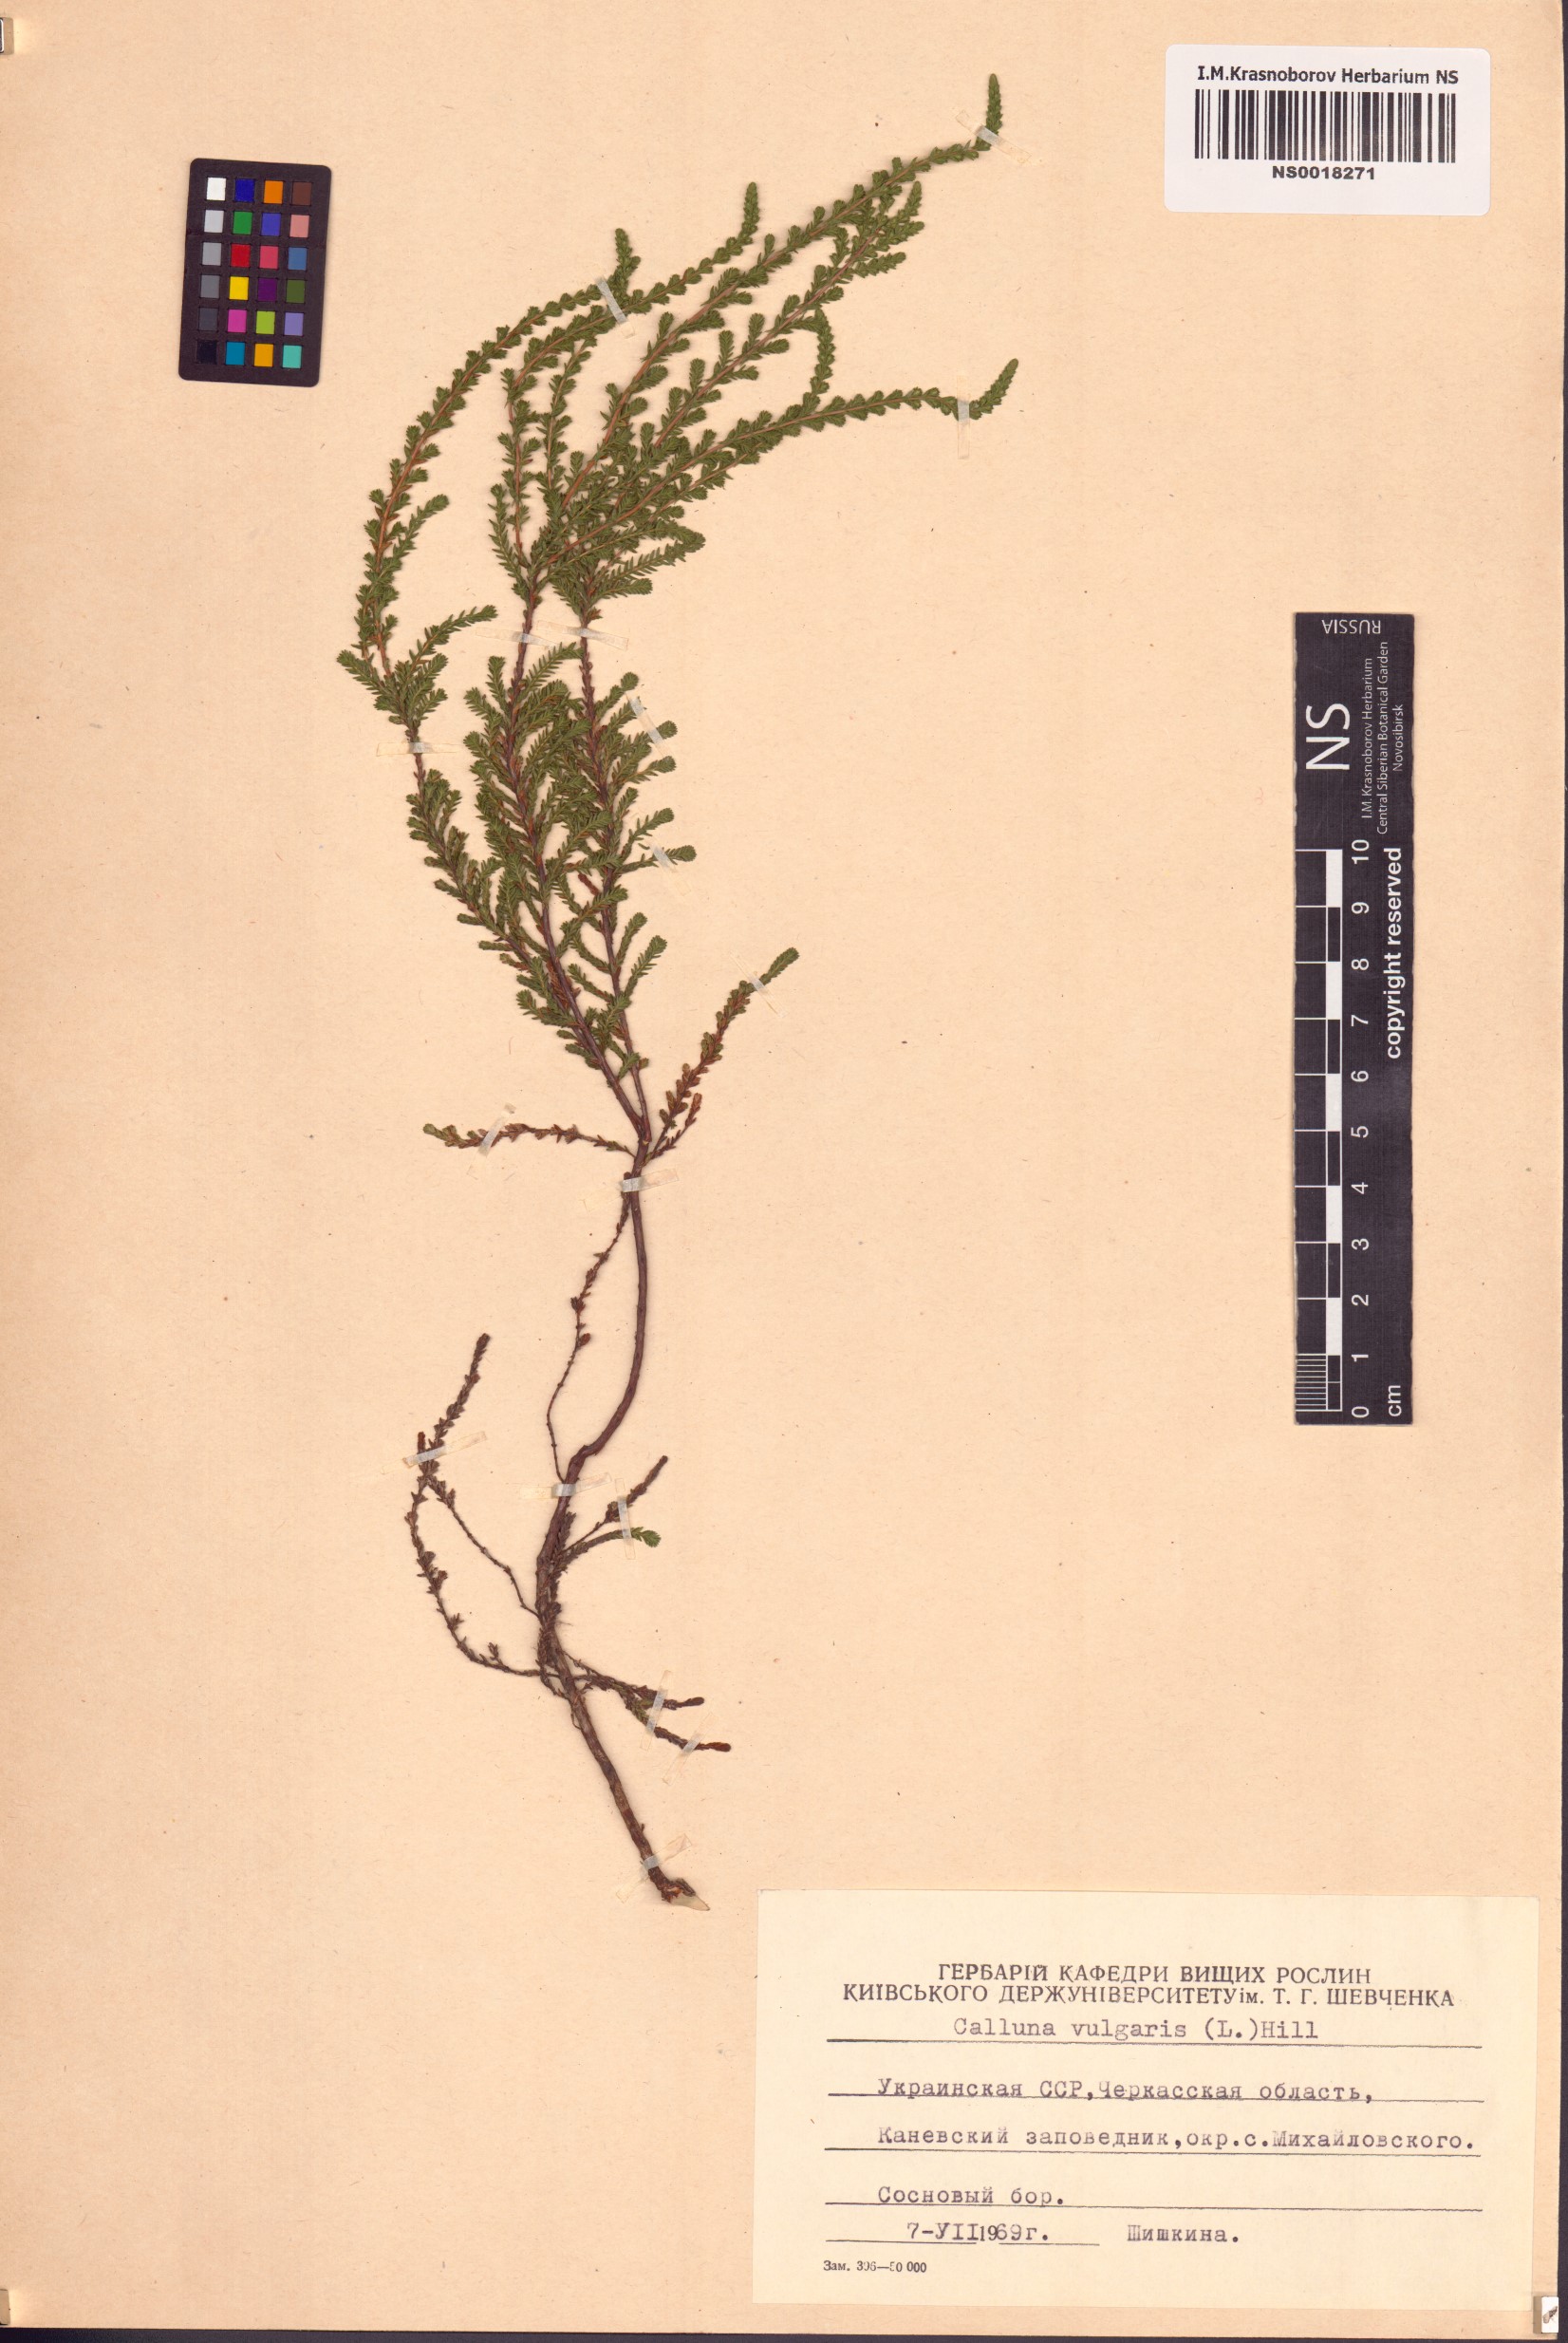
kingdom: Plantae
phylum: Tracheophyta
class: Magnoliopsida
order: Ericales
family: Ericaceae
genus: Calluna
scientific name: Calluna vulgaris
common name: Heather
